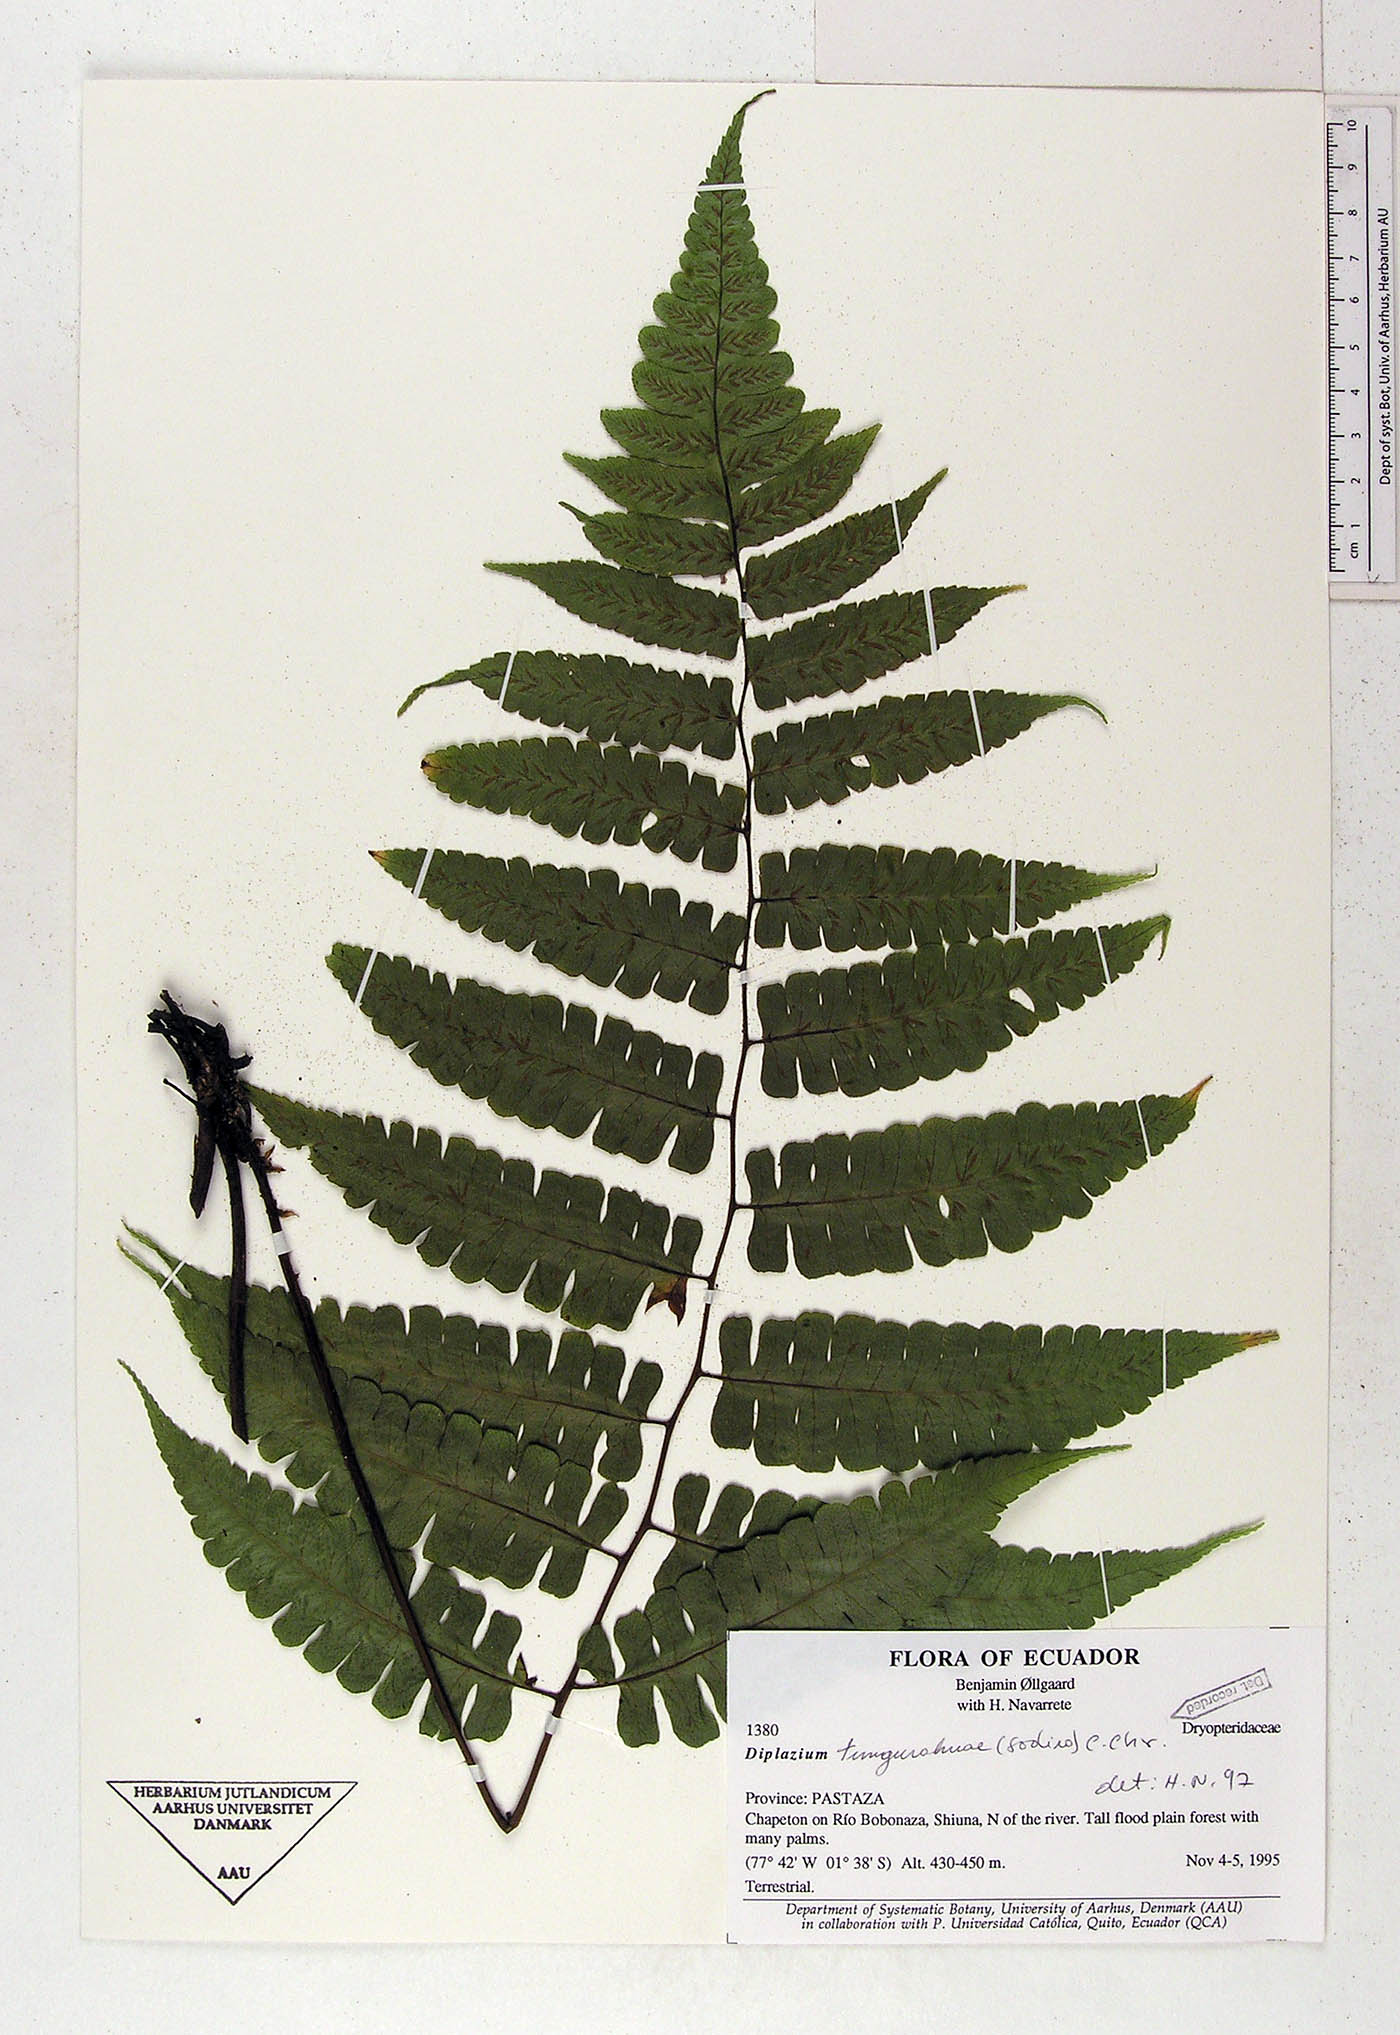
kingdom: Plantae
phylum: Tracheophyta
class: Polypodiopsida
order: Polypodiales
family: Athyriaceae
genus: Diplazium
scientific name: Diplazium tungurahuae
